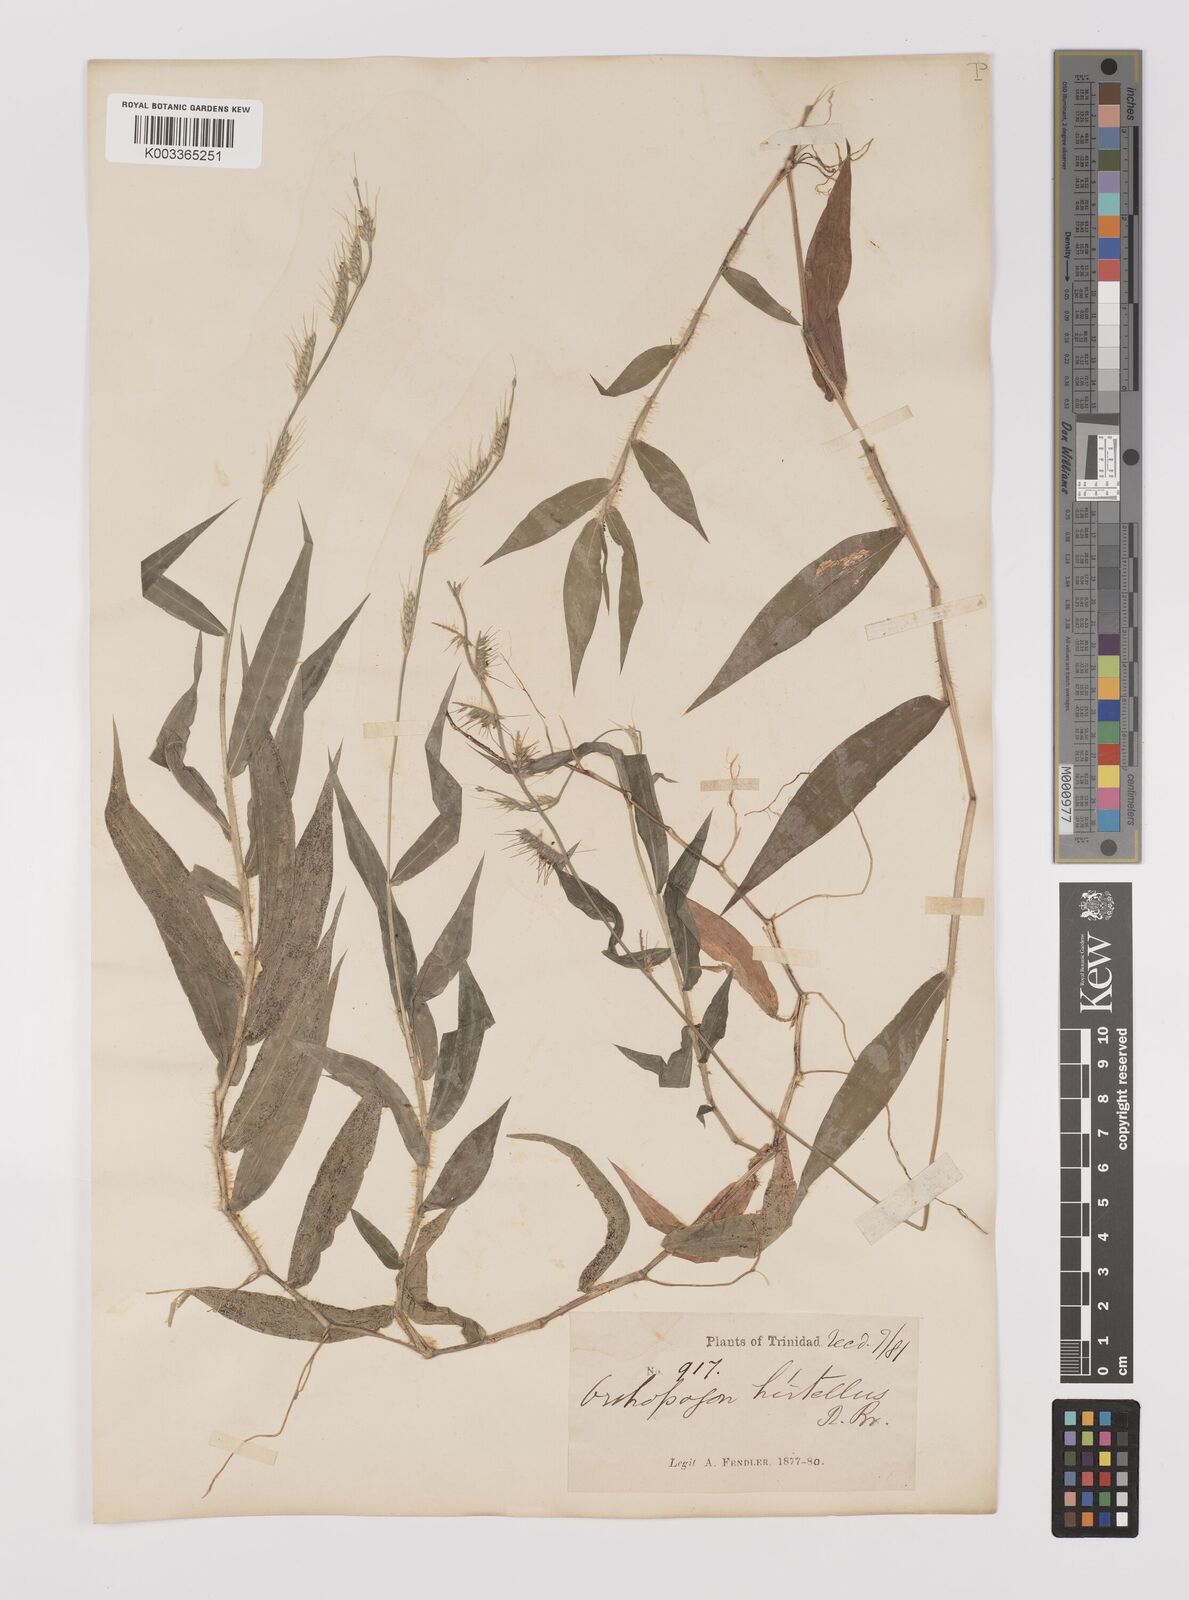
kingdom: Plantae
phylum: Tracheophyta
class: Liliopsida
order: Poales
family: Poaceae
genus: Oplismenus
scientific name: Oplismenus hirtellus
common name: Basketgrass
